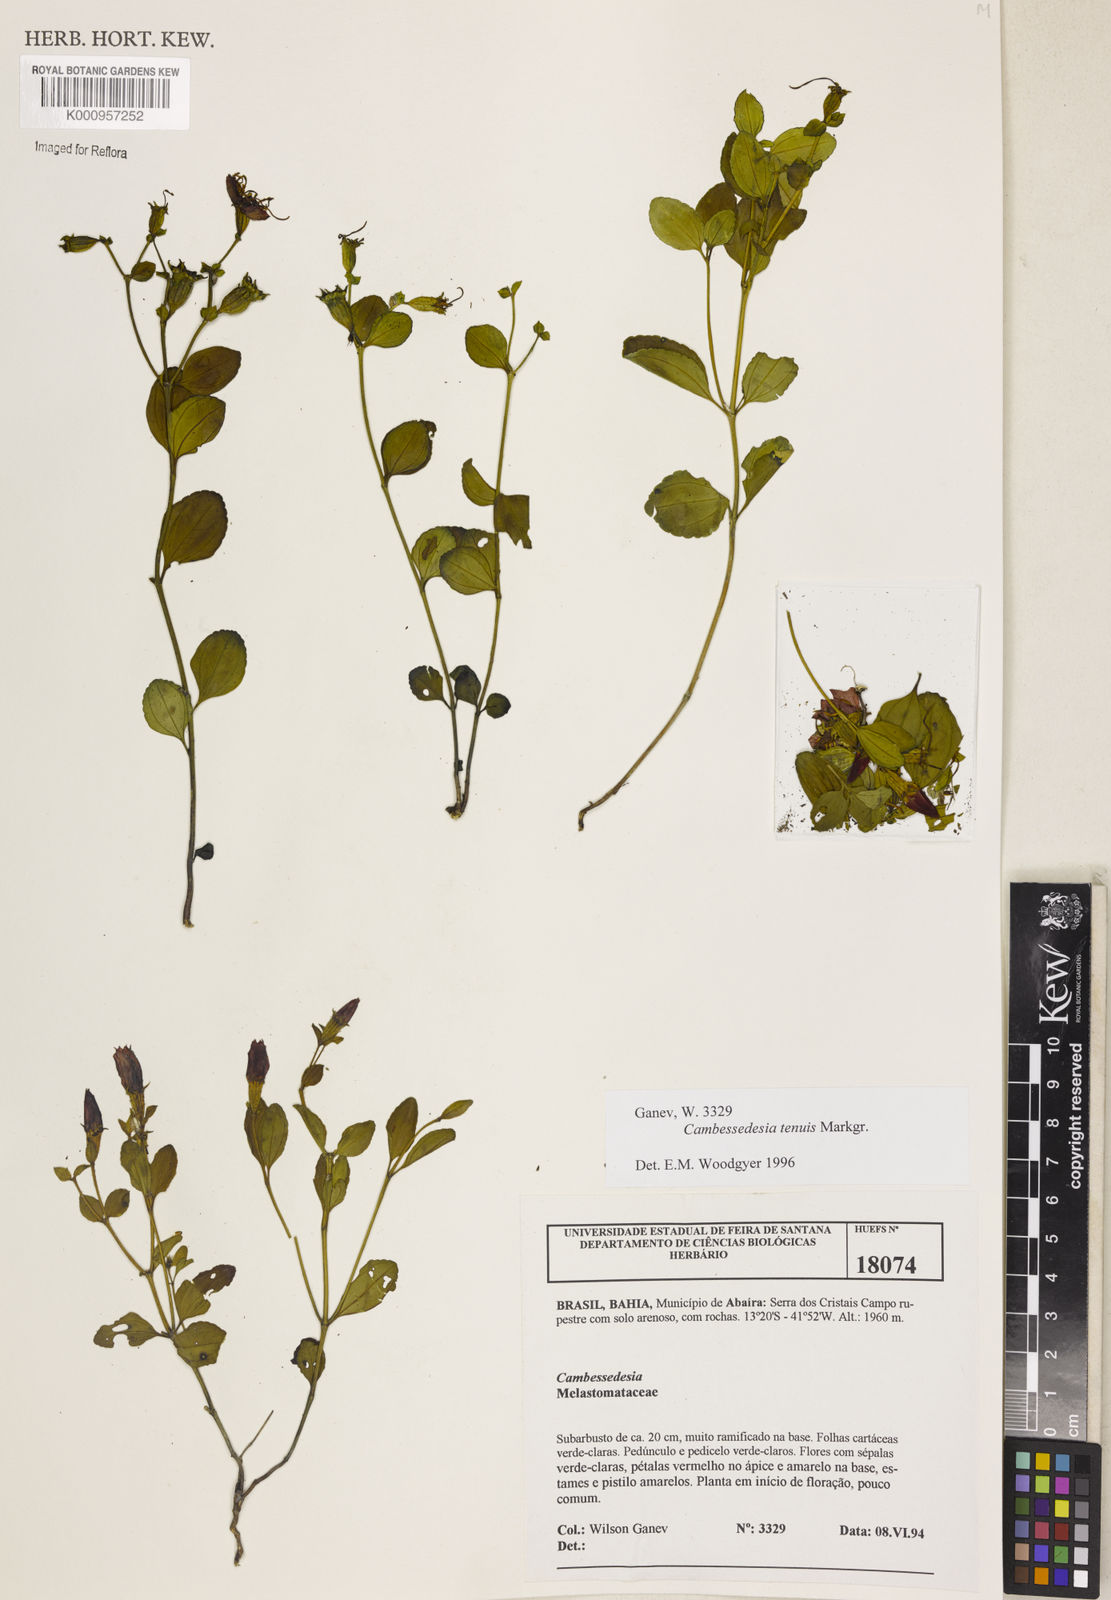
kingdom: Plantae
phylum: Tracheophyta
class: Magnoliopsida
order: Myrtales
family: Melastomataceae
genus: Cambessedesia
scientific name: Cambessedesia tenuis
